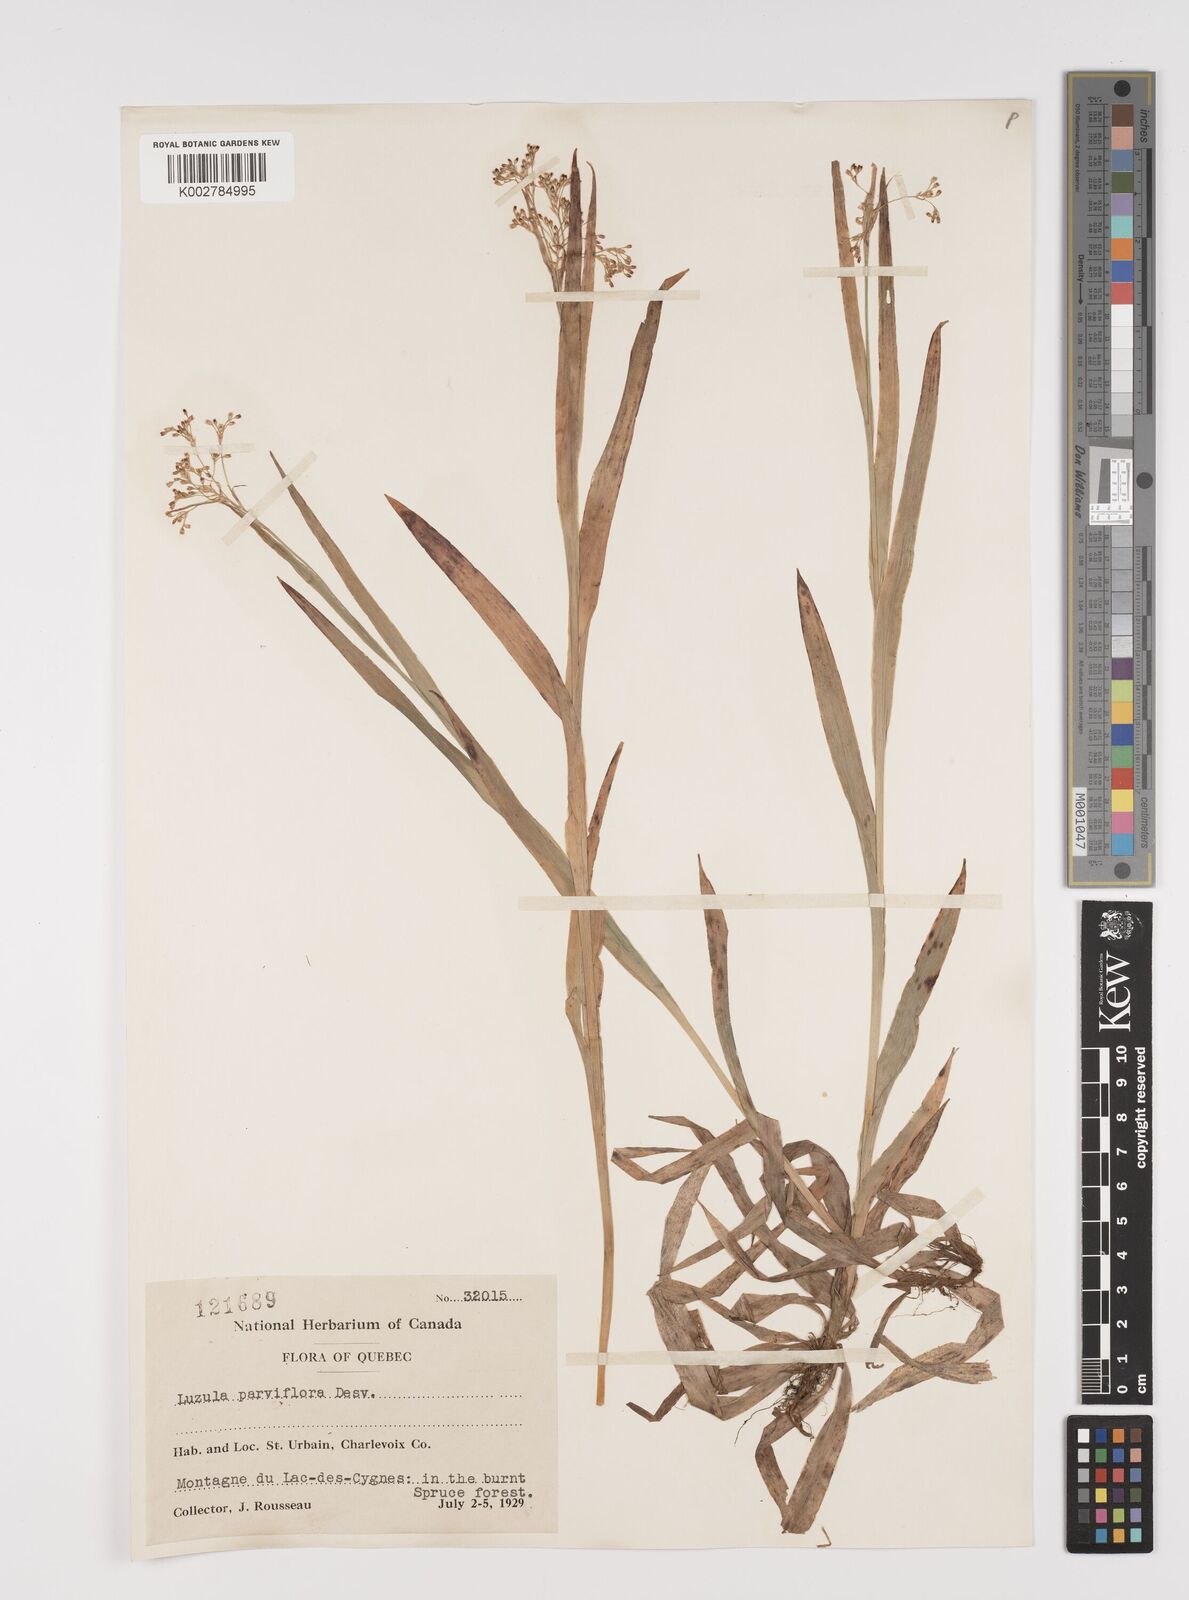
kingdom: Plantae
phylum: Tracheophyta
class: Liliopsida
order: Poales
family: Juncaceae
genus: Luzula
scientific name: Luzula parviflora
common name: Millet woodrush
